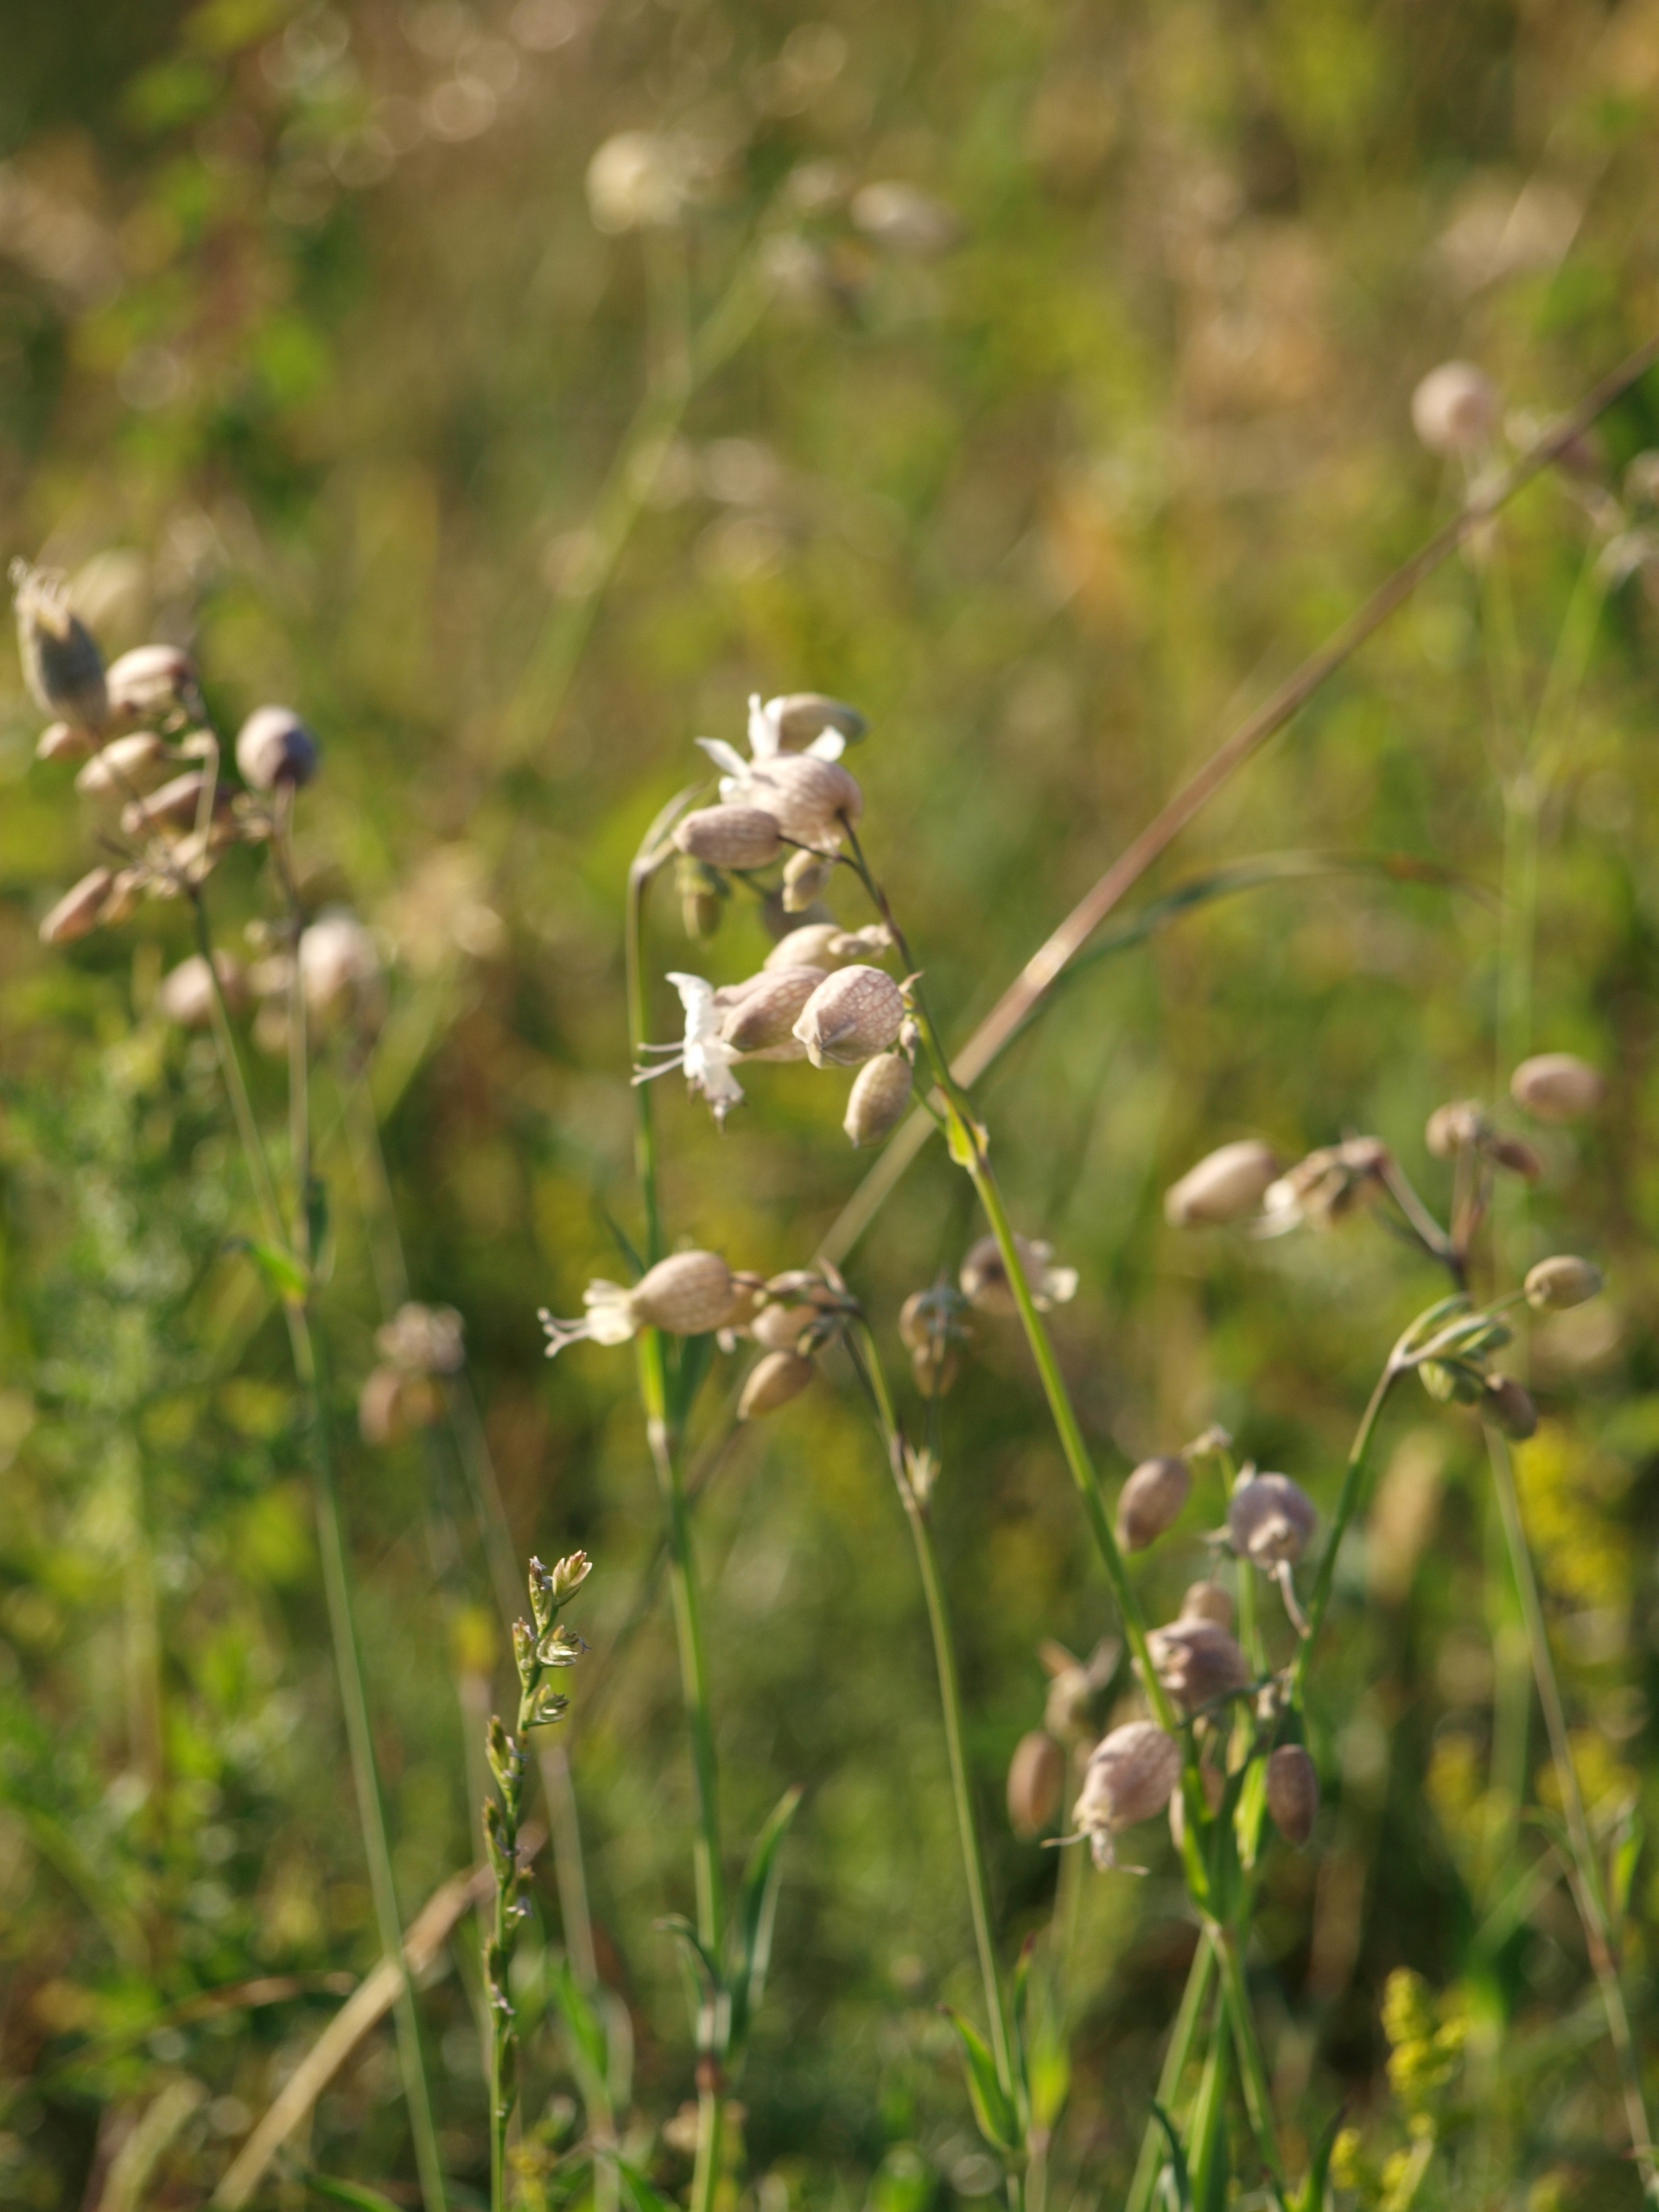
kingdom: Plantae
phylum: Tracheophyta
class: Magnoliopsida
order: Caryophyllales
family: Caryophyllaceae
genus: Silene
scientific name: Silene vulgaris
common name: Blæresmælde
